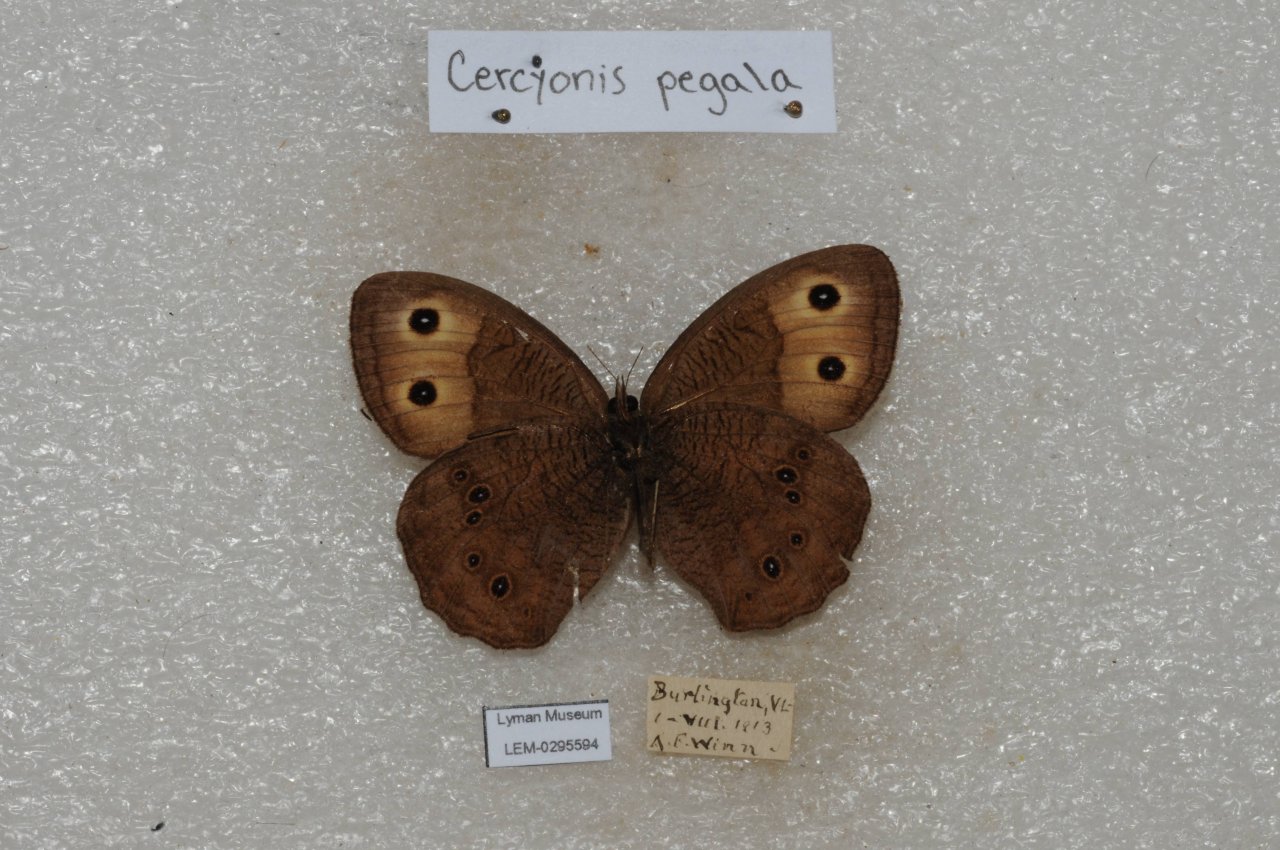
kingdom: Animalia
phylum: Arthropoda
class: Insecta
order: Lepidoptera
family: Nymphalidae
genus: Cercyonis
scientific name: Cercyonis pegala
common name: Common Wood-Nymph
